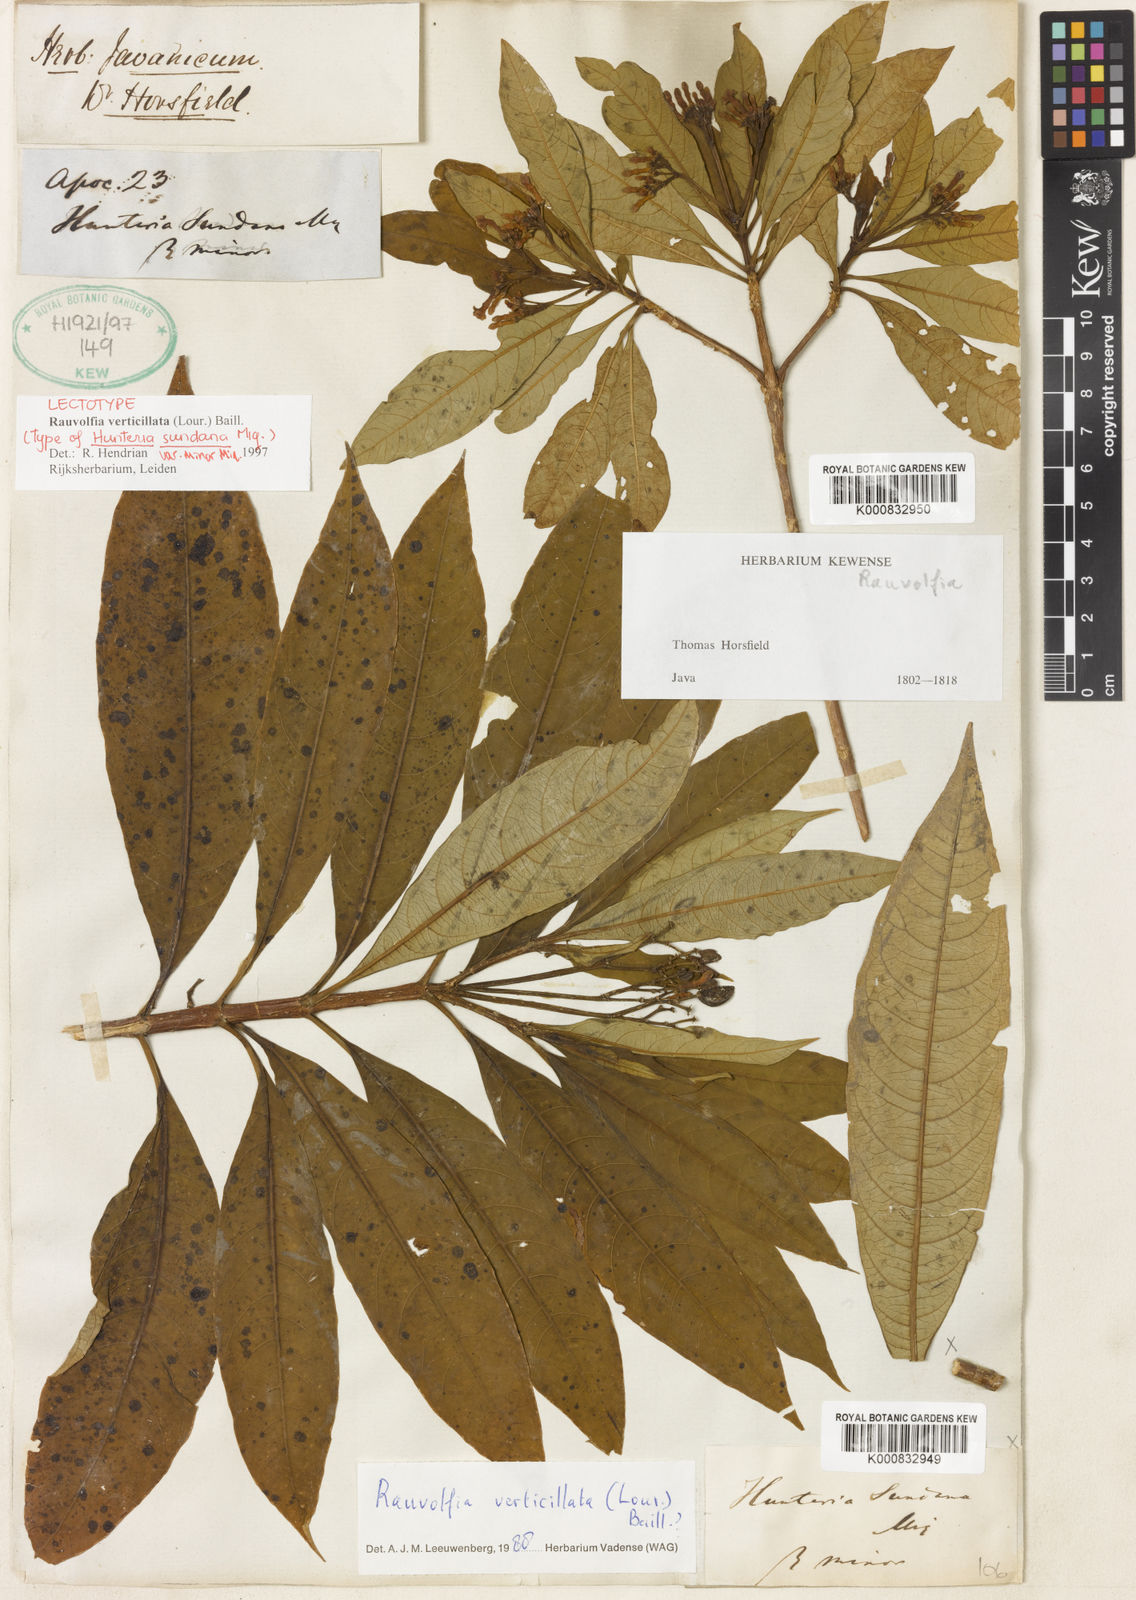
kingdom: Plantae
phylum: Tracheophyta
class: Magnoliopsida
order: Gentianales
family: Apocynaceae
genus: Rauvolfia
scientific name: Rauvolfia verticillata
